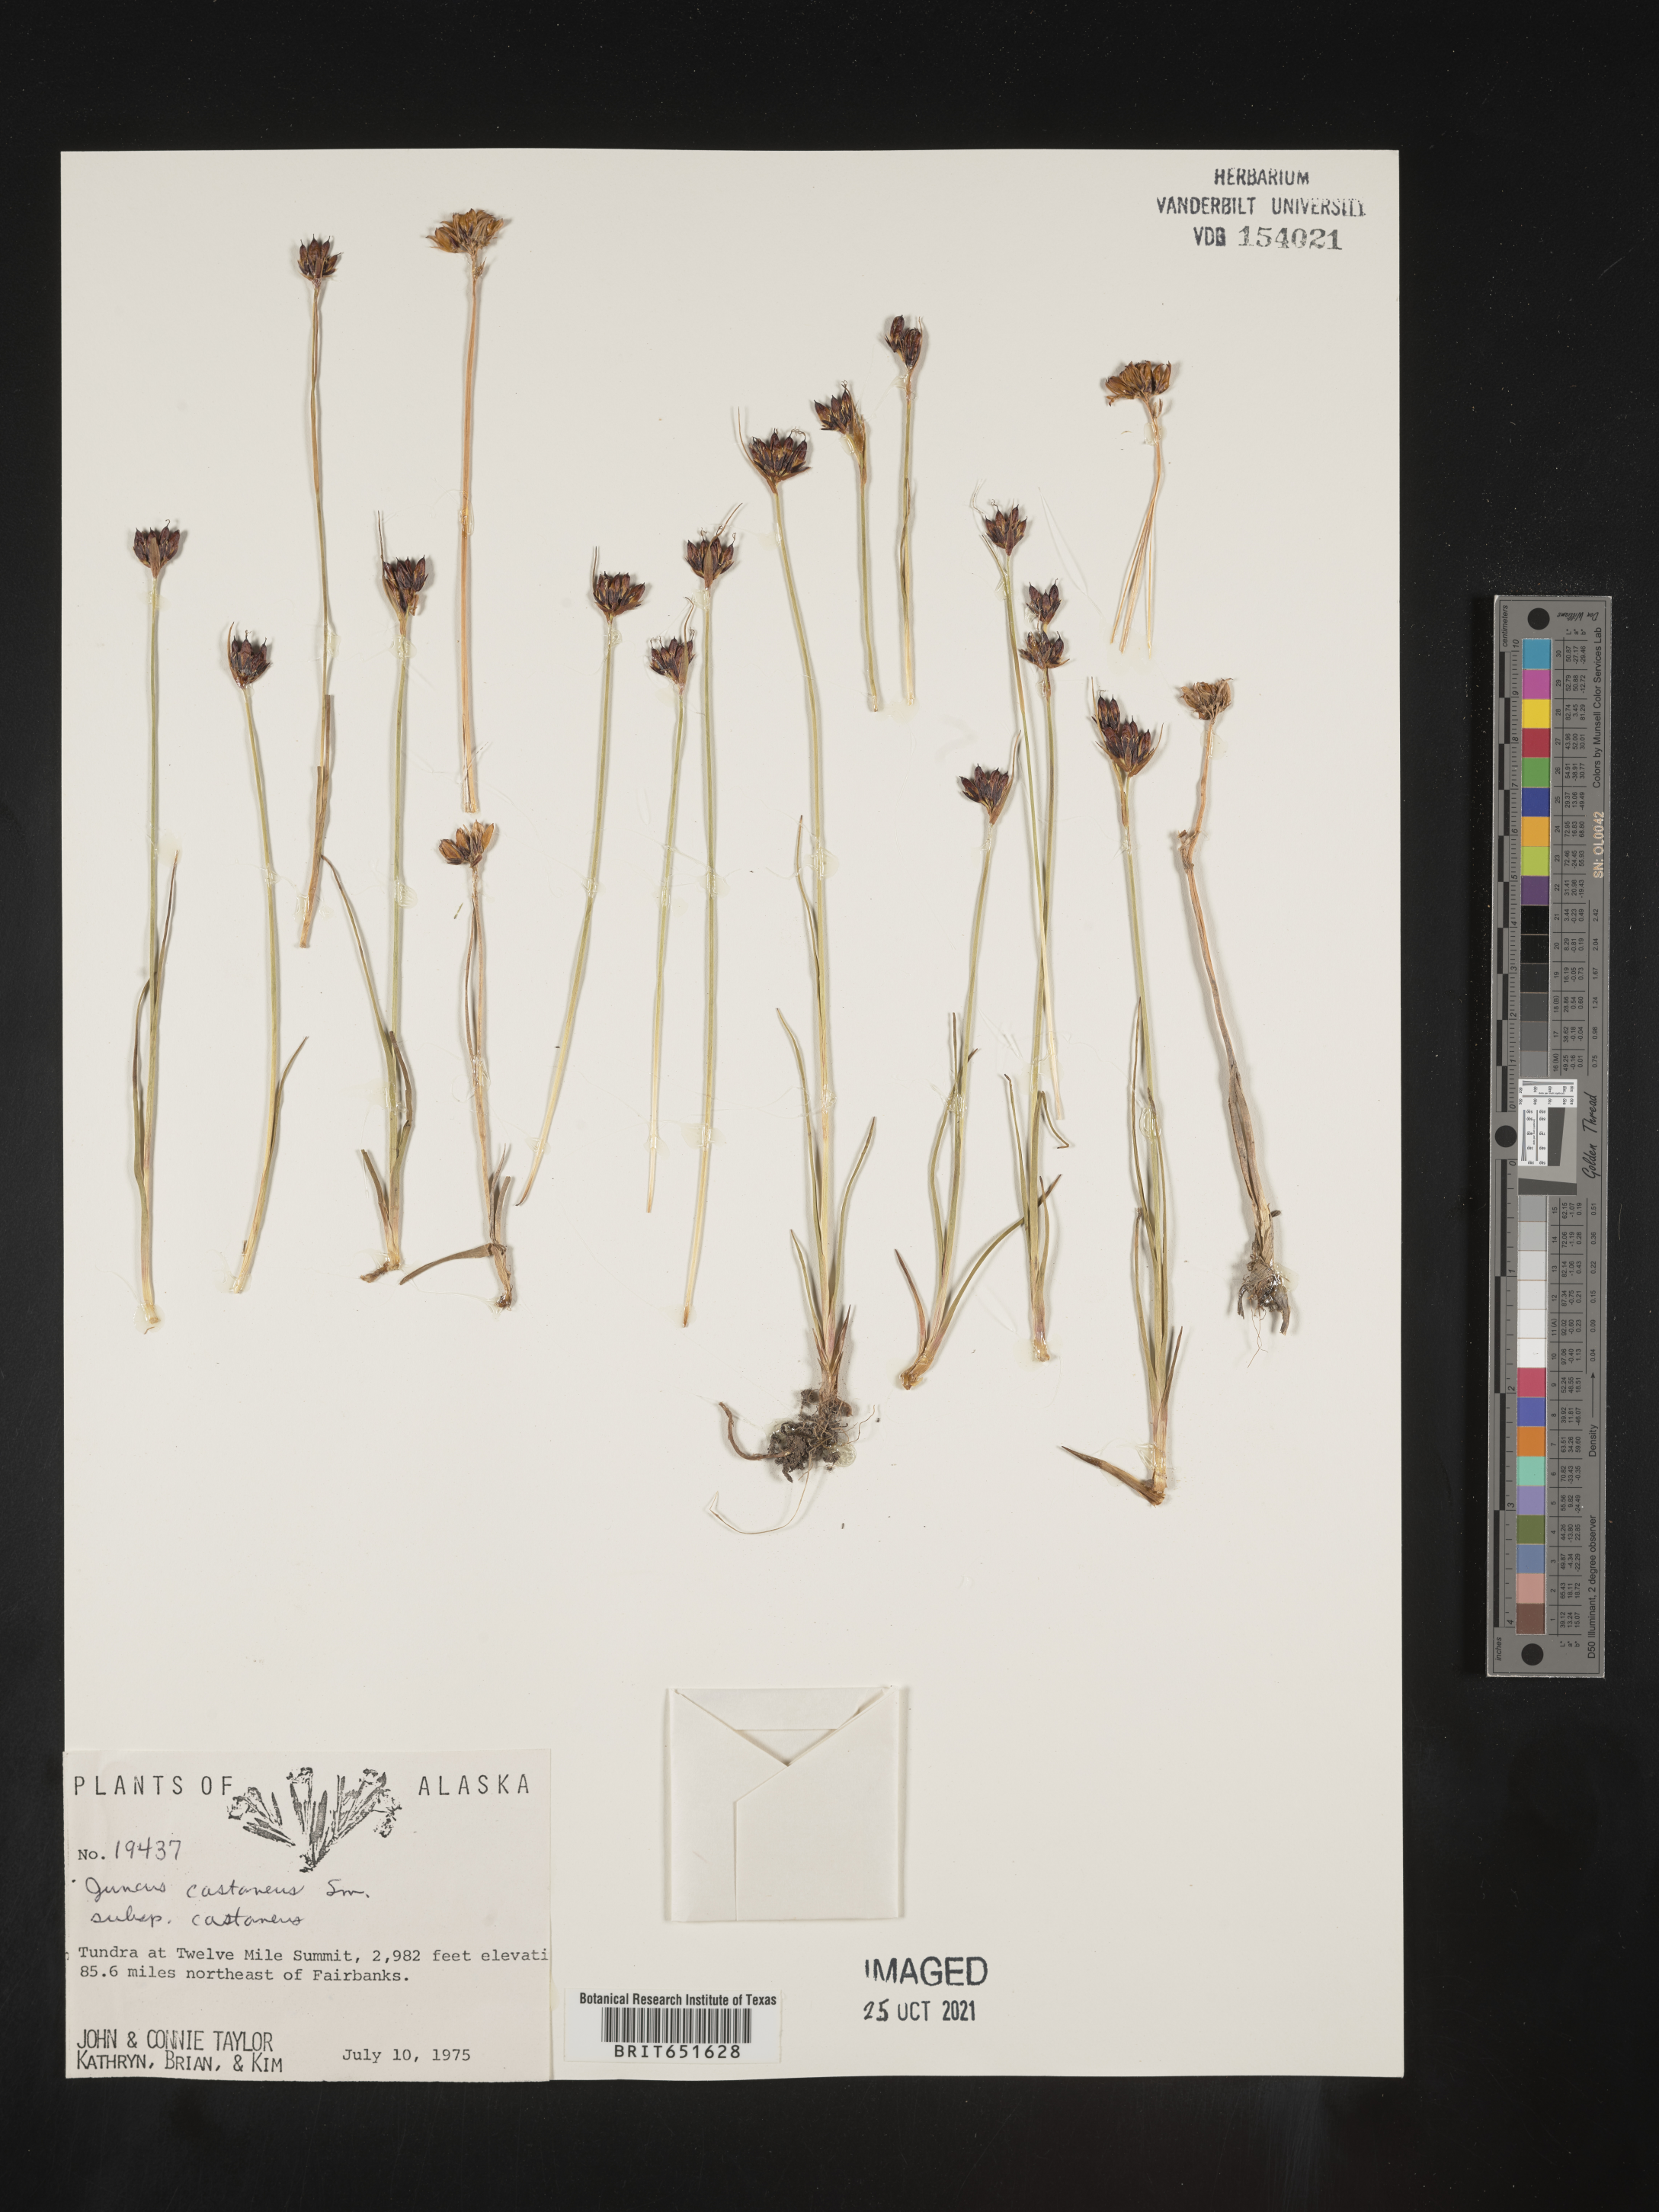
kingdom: Plantae
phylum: Tracheophyta
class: Liliopsida
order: Poales
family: Juncaceae
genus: Juncus
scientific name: Juncus castaneus
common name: Chestnut rush
